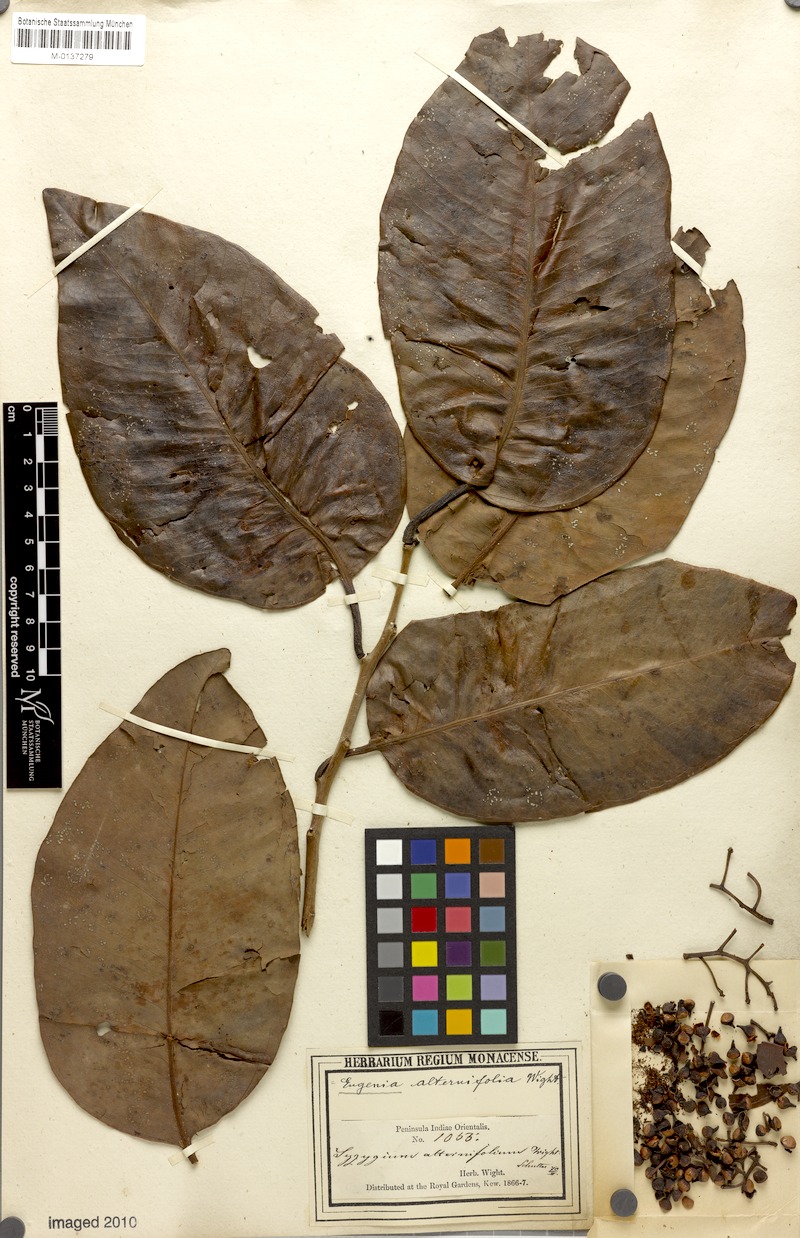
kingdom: Plantae
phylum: Tracheophyta
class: Magnoliopsida
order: Myrtales
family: Myrtaceae
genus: Syzygium
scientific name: Syzygium alternifolium
